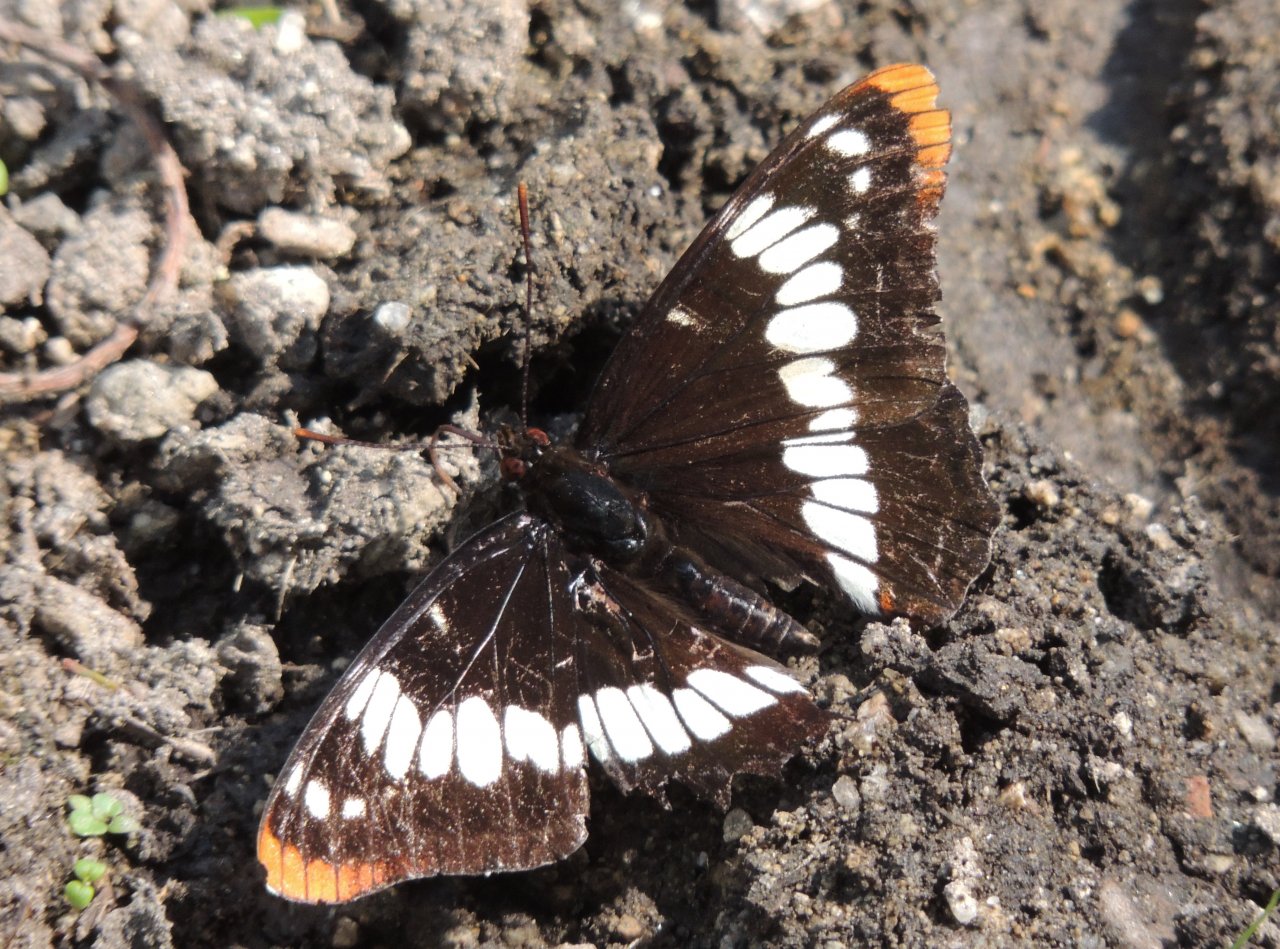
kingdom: Animalia
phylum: Arthropoda
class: Insecta
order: Lepidoptera
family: Nymphalidae
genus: Limenitis
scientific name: Limenitis lorquini
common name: Lorquin's Admiral
